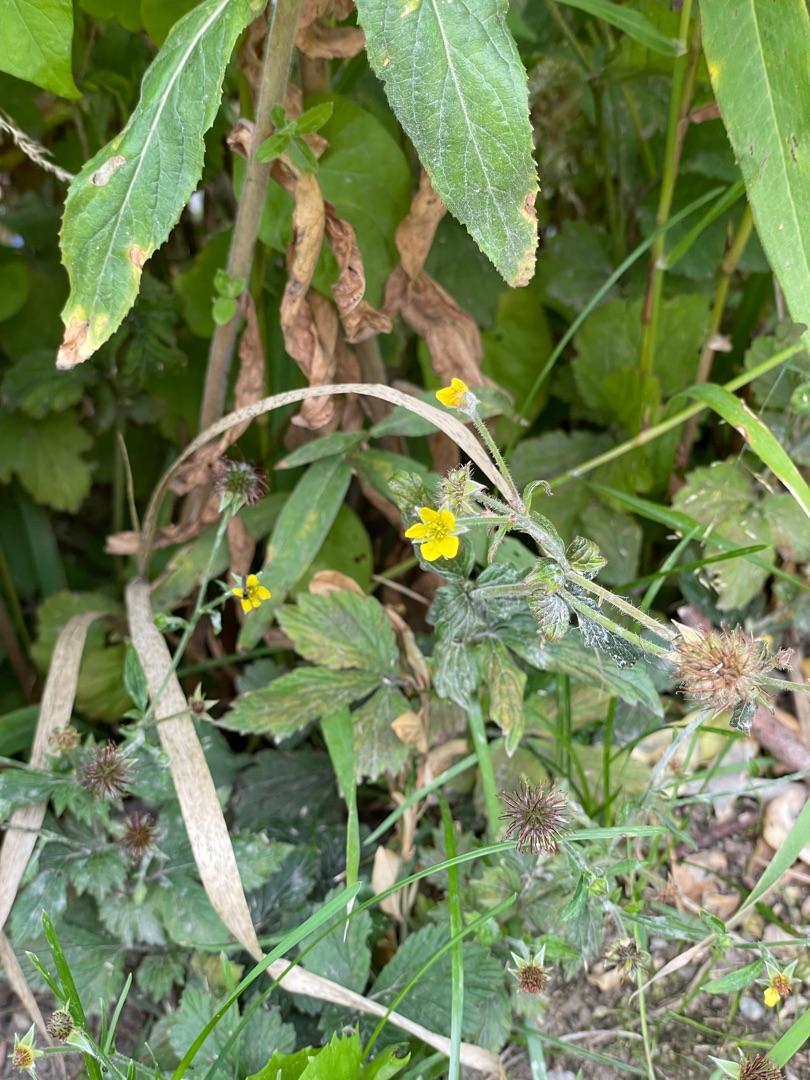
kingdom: Plantae
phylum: Tracheophyta
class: Magnoliopsida
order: Rosales
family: Rosaceae
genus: Geum
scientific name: Geum urbanum
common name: Feber-nellikerod
